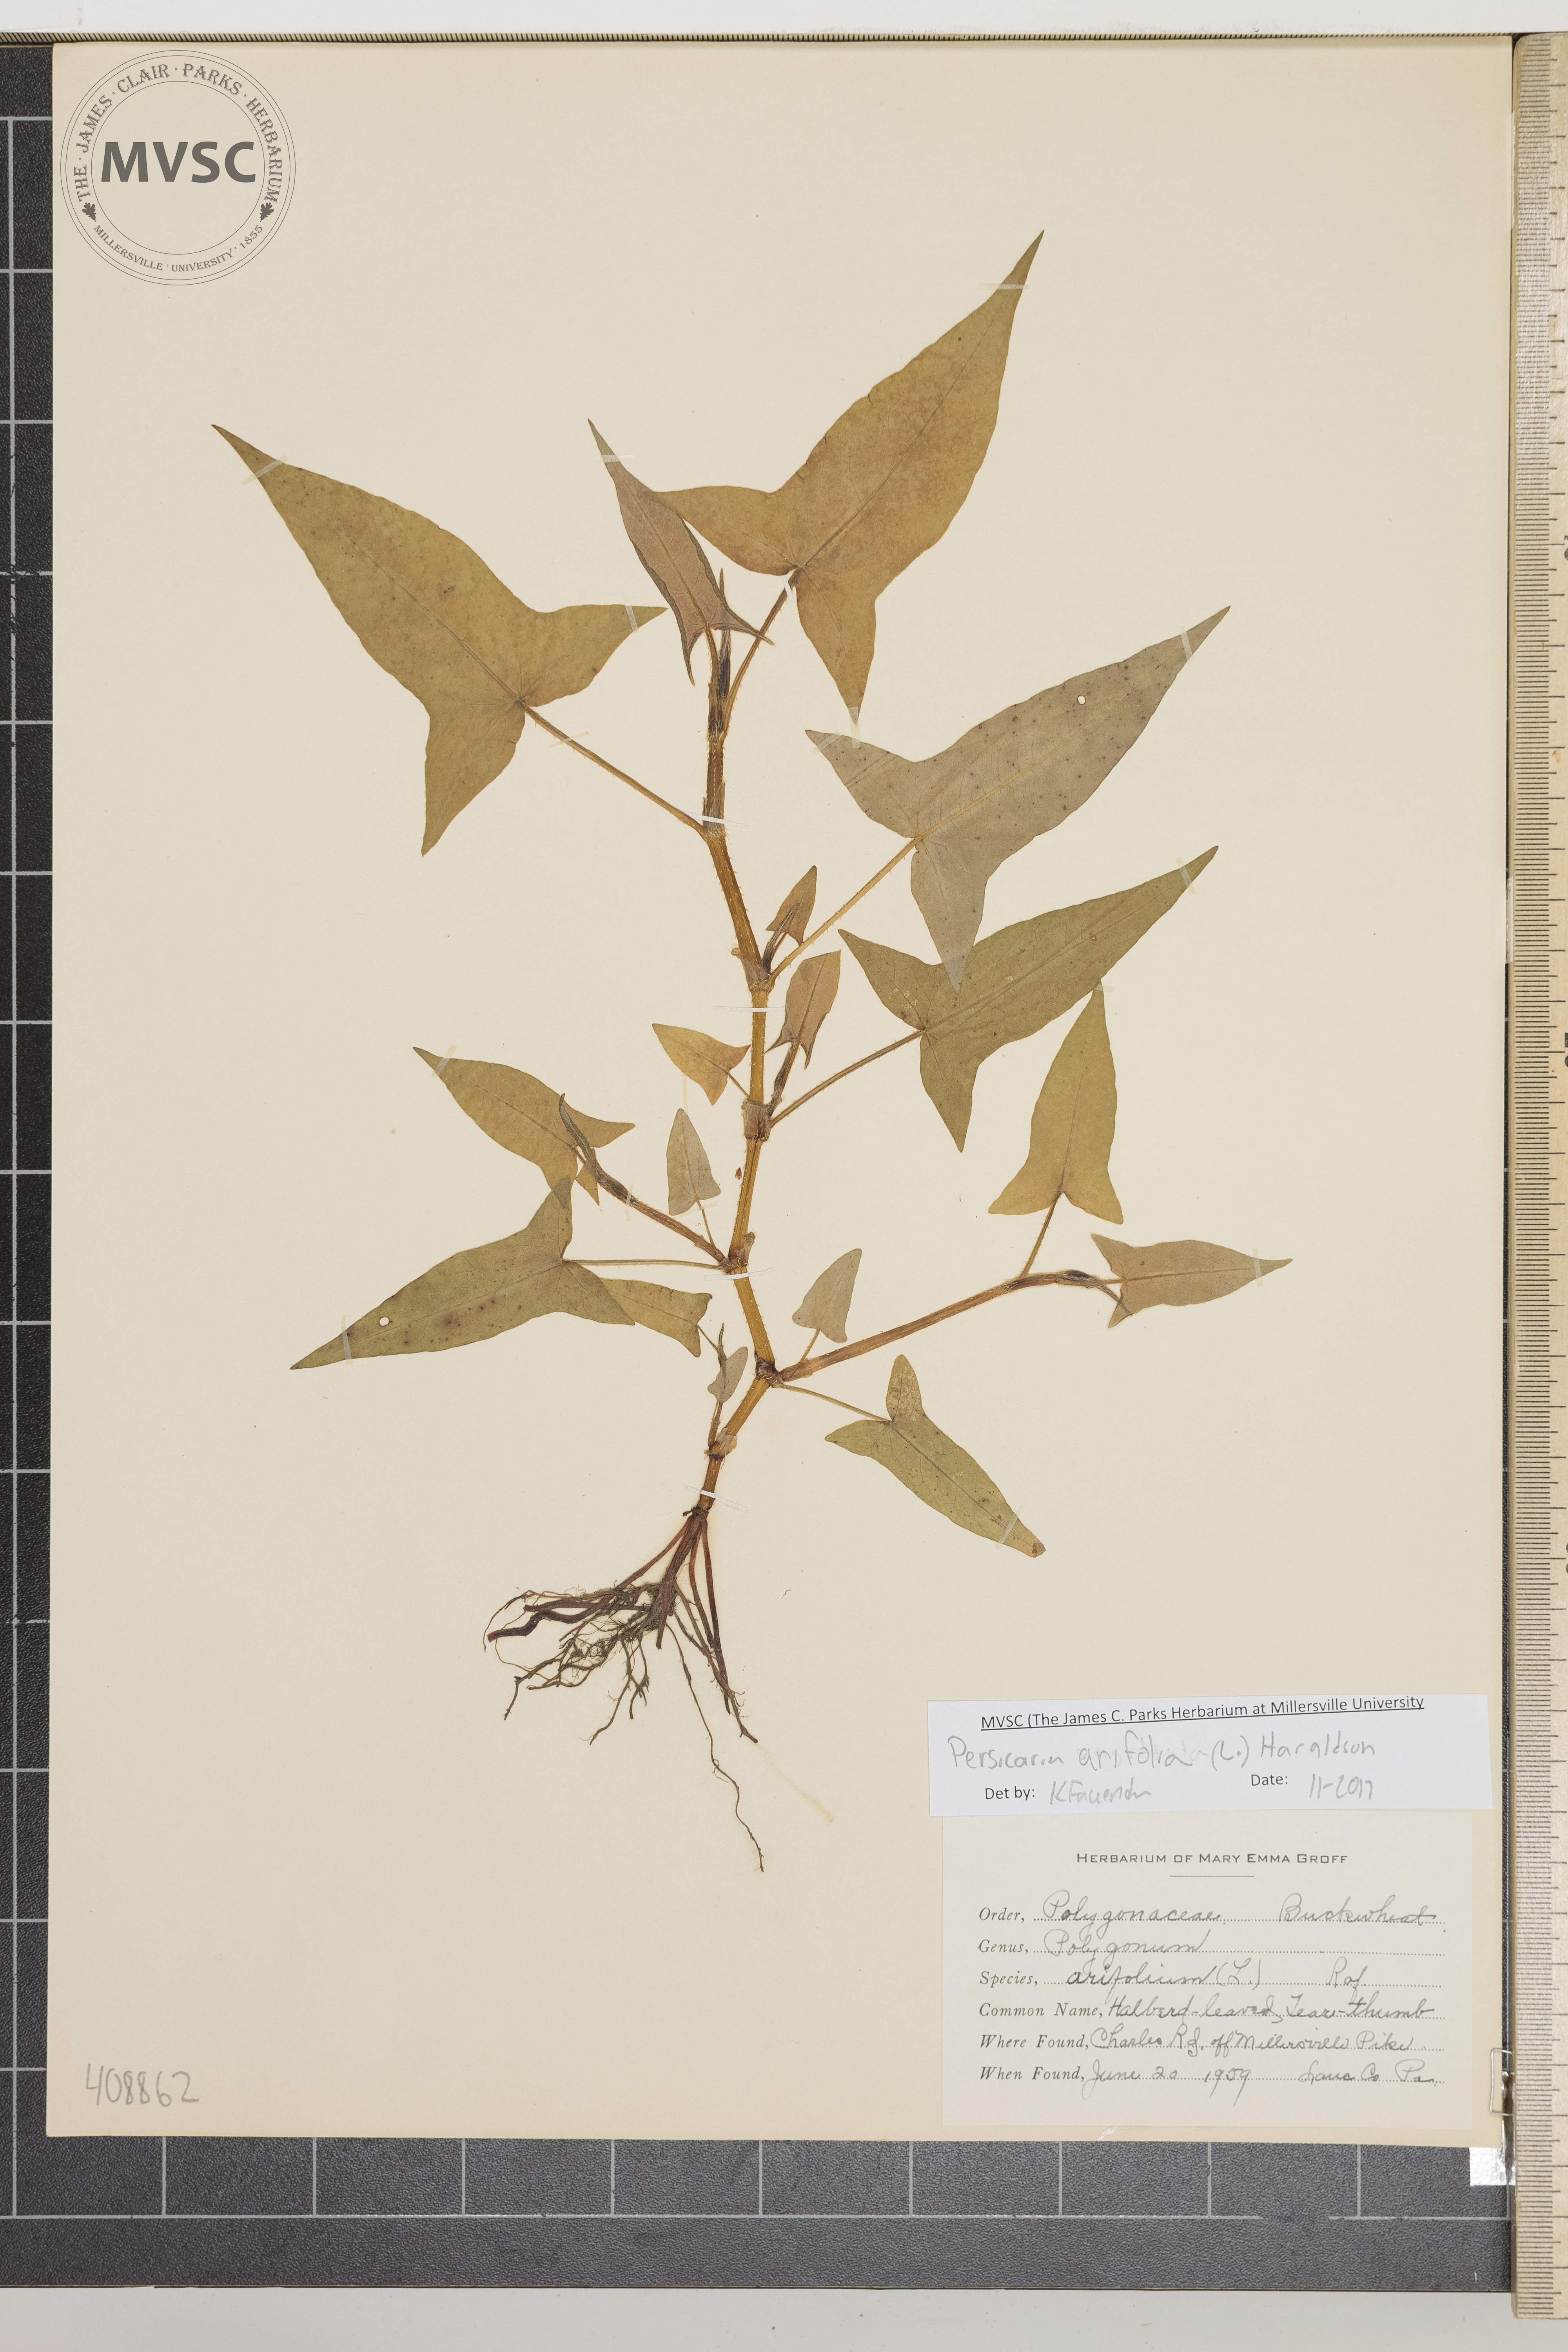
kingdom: Plantae
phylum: Tracheophyta
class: Magnoliopsida
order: Caryophyllales
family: Polygonaceae
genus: Persicaria
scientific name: Persicaria arifolia
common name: Halberd-leaved Tear-thumb
